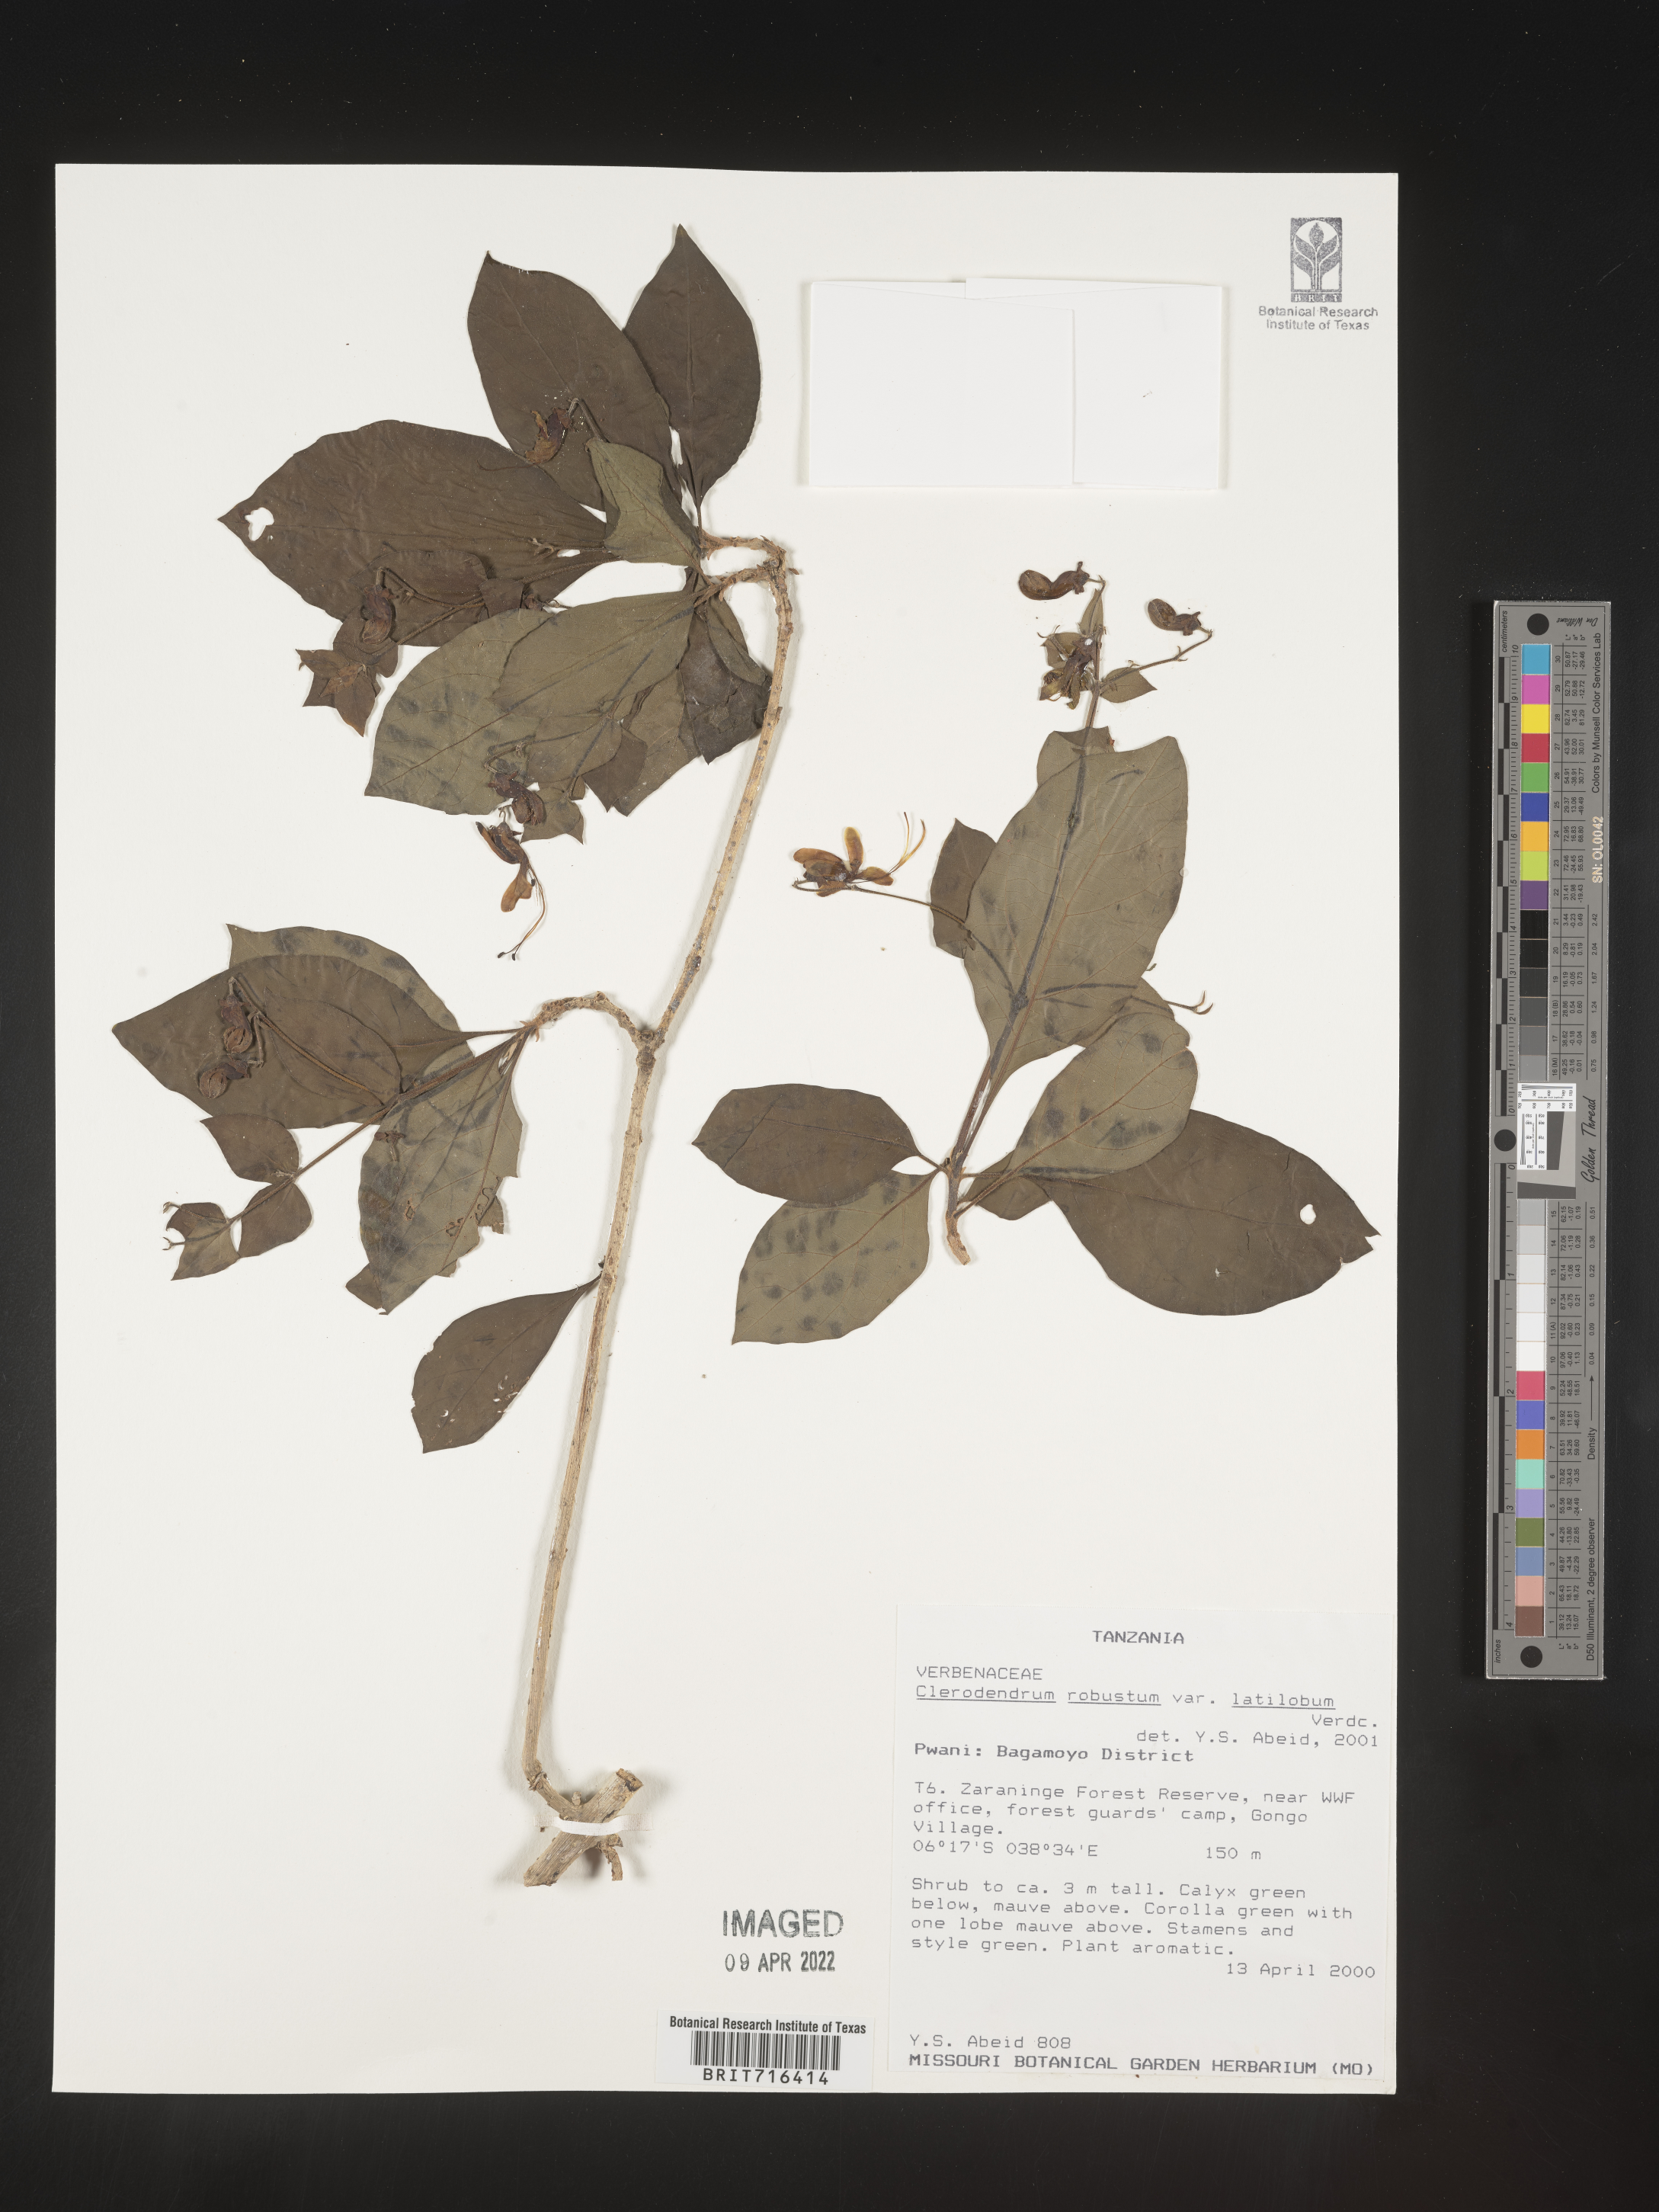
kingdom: Plantae
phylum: Tracheophyta
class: Magnoliopsida
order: Lamiales
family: Lamiaceae
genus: Clerodendrum
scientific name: Clerodendrum
